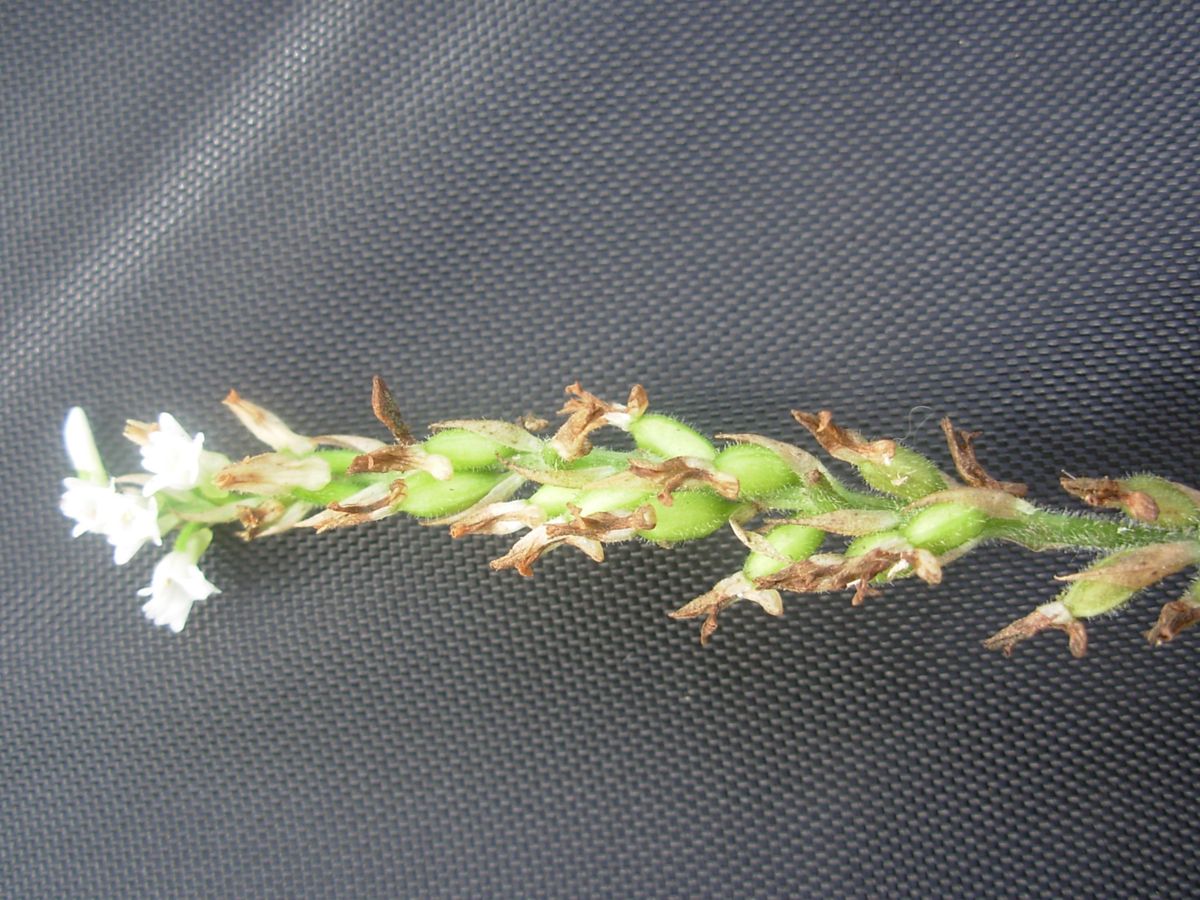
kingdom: Plantae
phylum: Tracheophyta
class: Liliopsida
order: Asparagales
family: Orchidaceae
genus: Goodyera
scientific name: Goodyera striata
